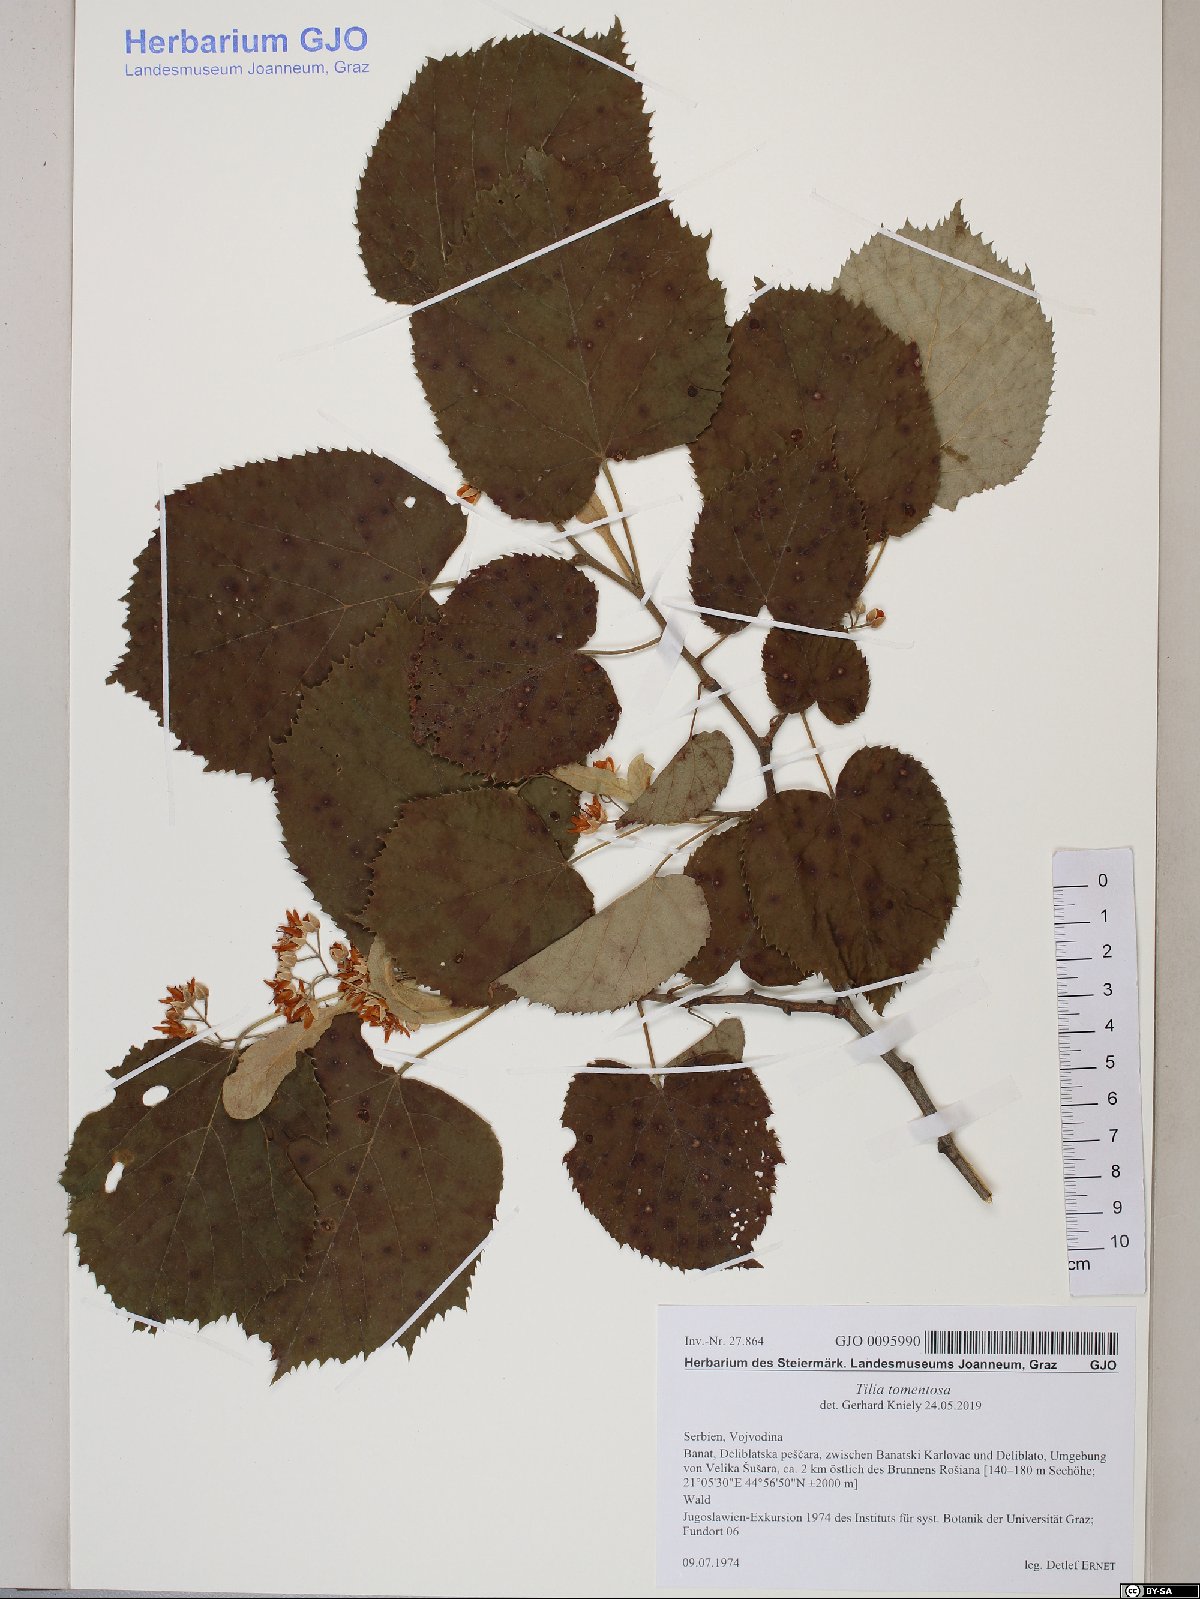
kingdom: Plantae
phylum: Tracheophyta
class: Magnoliopsida
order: Malvales
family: Malvaceae
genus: Tilia
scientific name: Tilia tomentosa
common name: Silver lime
